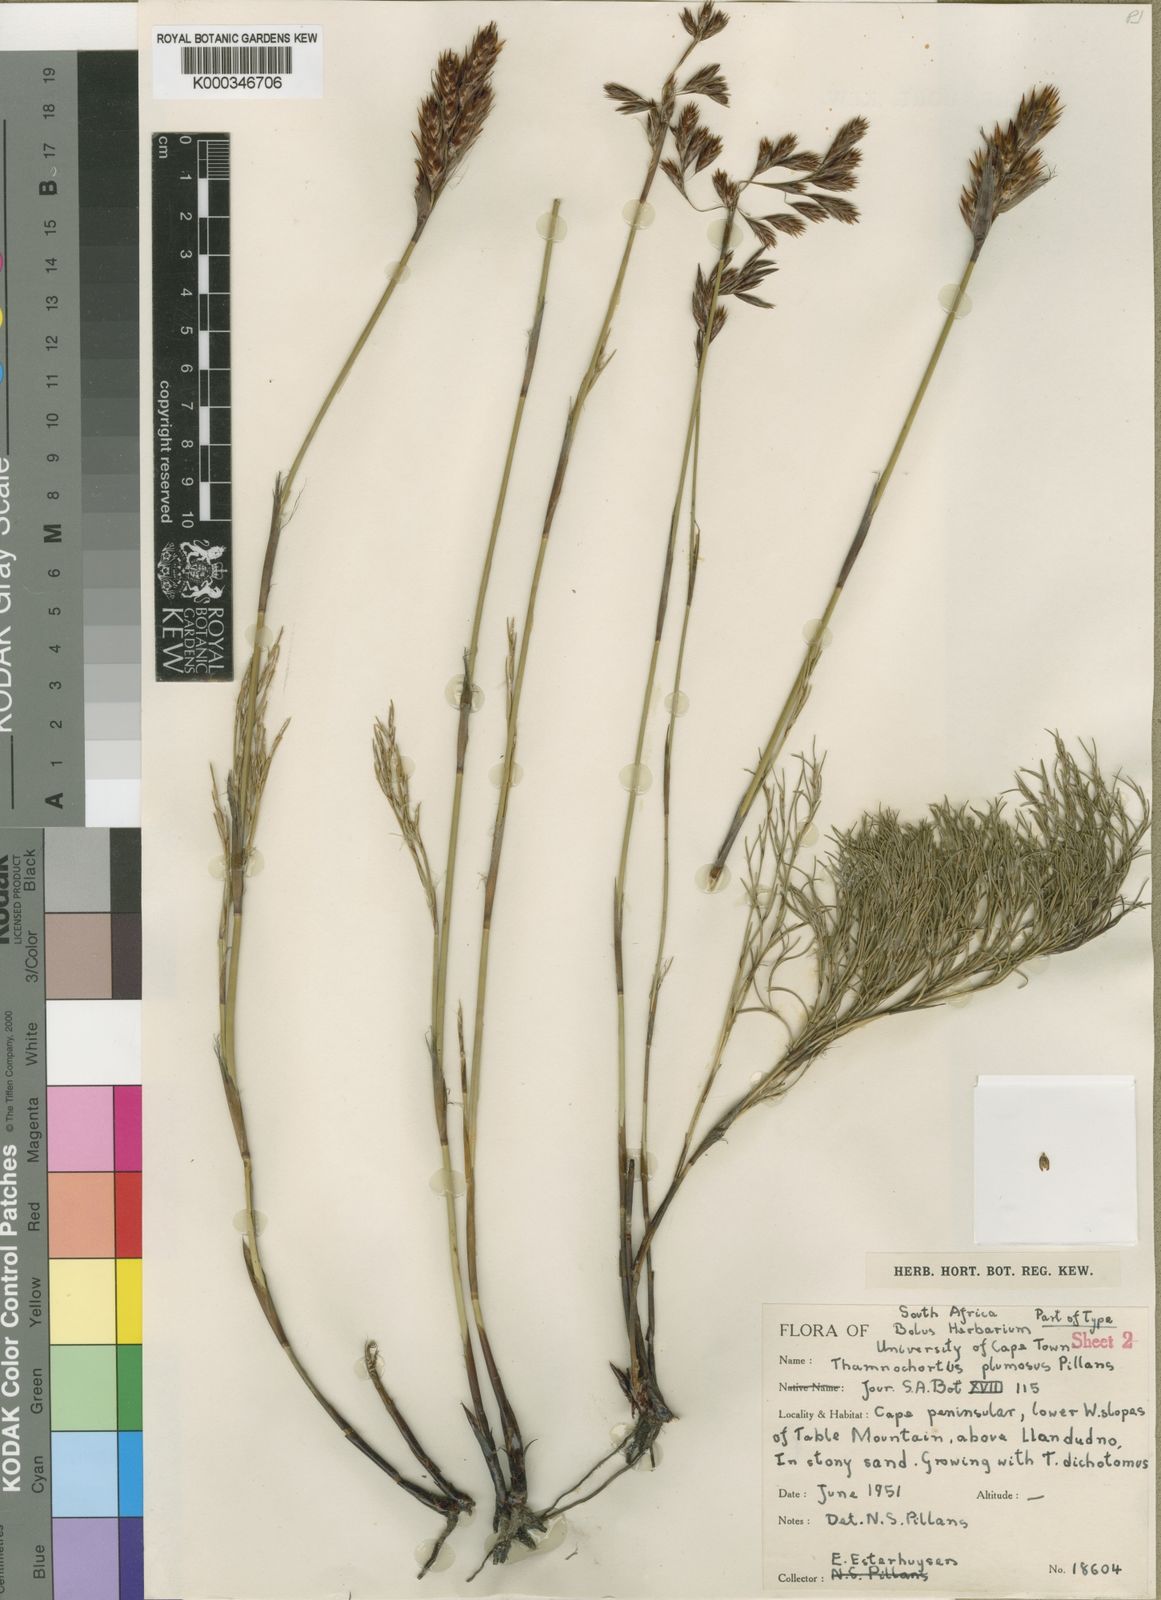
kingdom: Plantae
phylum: Tracheophyta
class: Liliopsida
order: Poales
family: Restionaceae
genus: Thamnochortus
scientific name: Thamnochortus guthrieae
